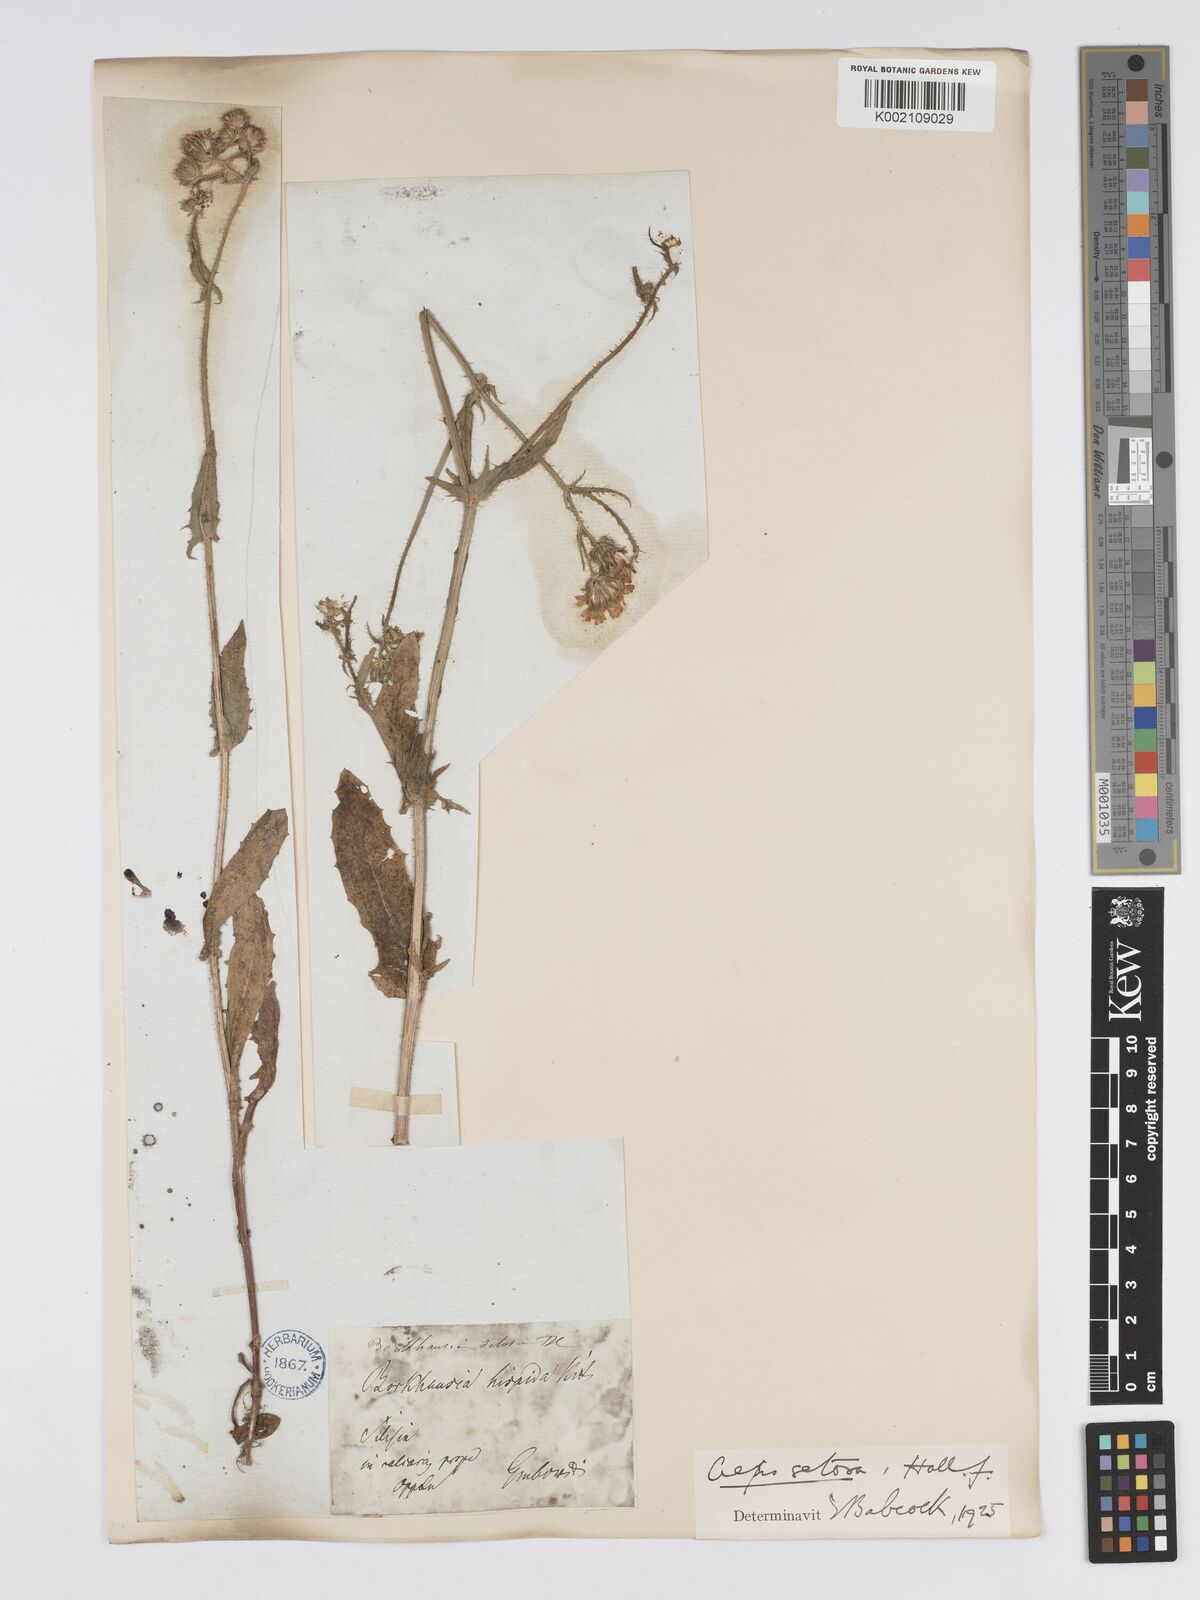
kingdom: Plantae
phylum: Tracheophyta
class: Magnoliopsida
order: Asterales
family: Asteraceae
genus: Crepis
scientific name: Crepis setosa
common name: Bristly hawk's-beard
